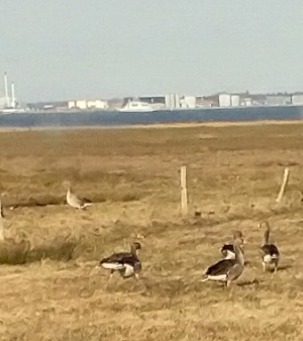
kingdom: Animalia
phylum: Chordata
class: Aves
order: Anseriformes
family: Anatidae
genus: Anser
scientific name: Anser anser
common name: Grågås
